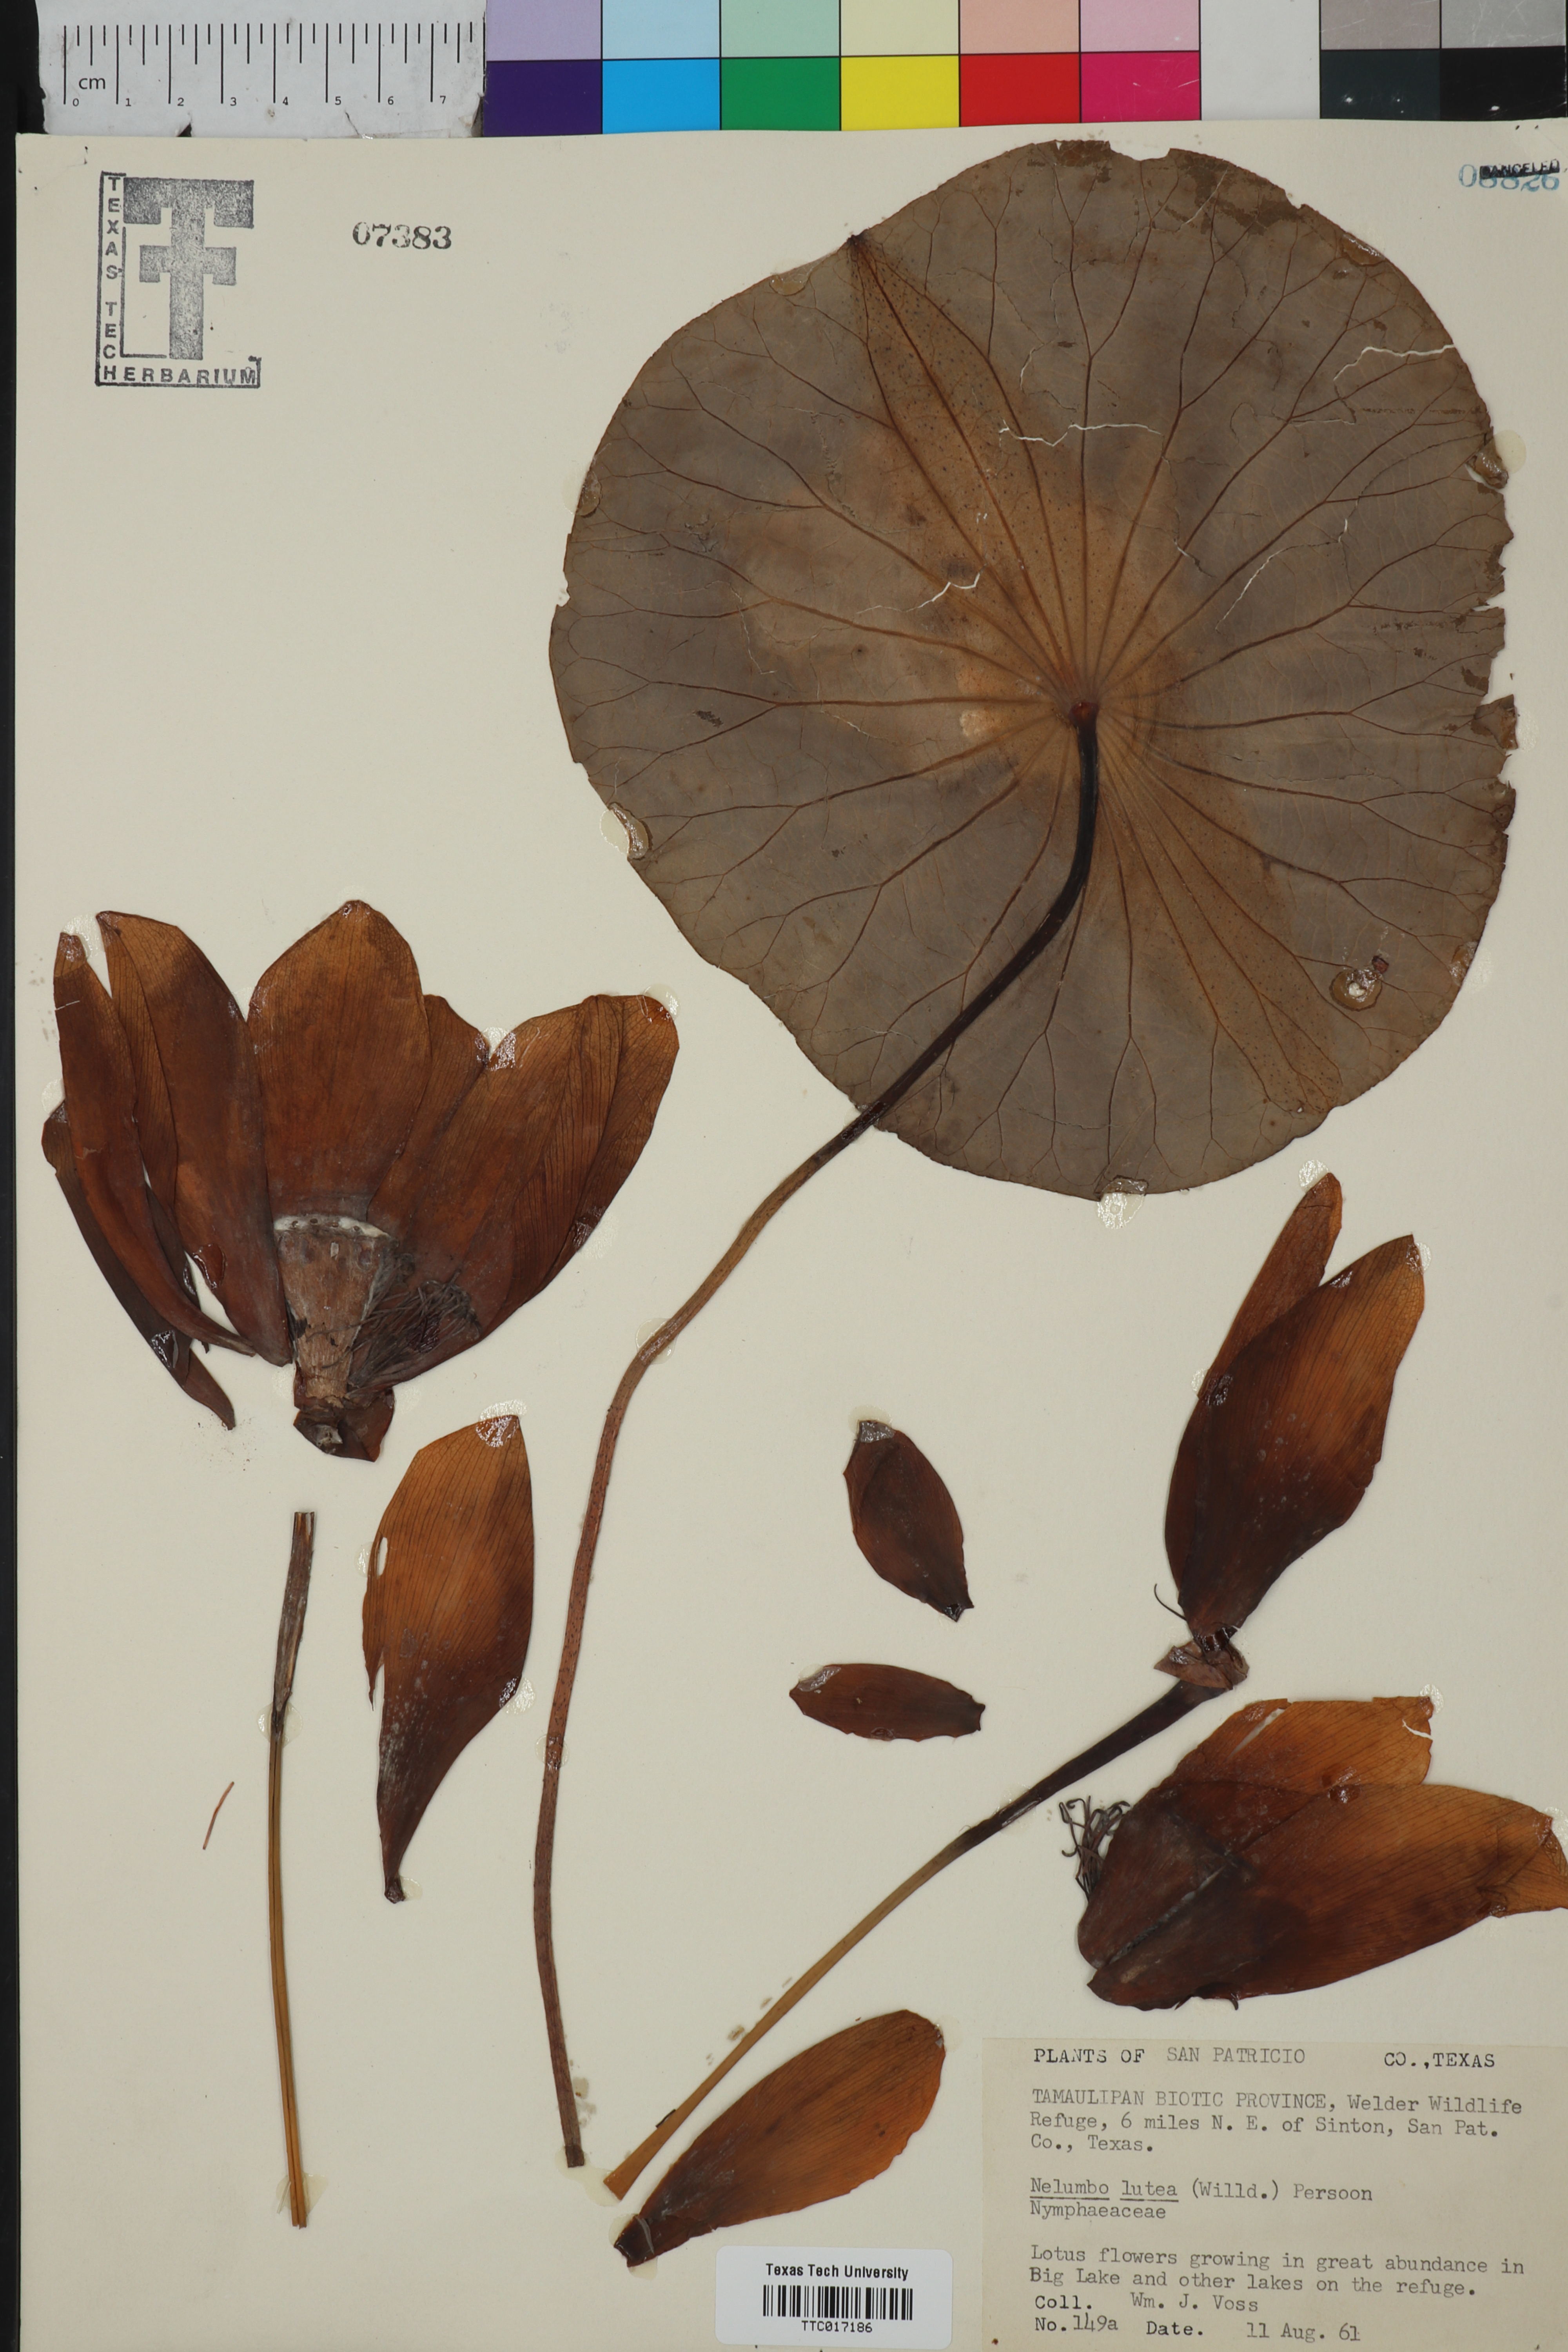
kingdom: Plantae
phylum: Tracheophyta
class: Magnoliopsida
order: Proteales
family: Nelumbonaceae
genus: Nelumbo
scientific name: Nelumbo lutea
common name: American lotus
